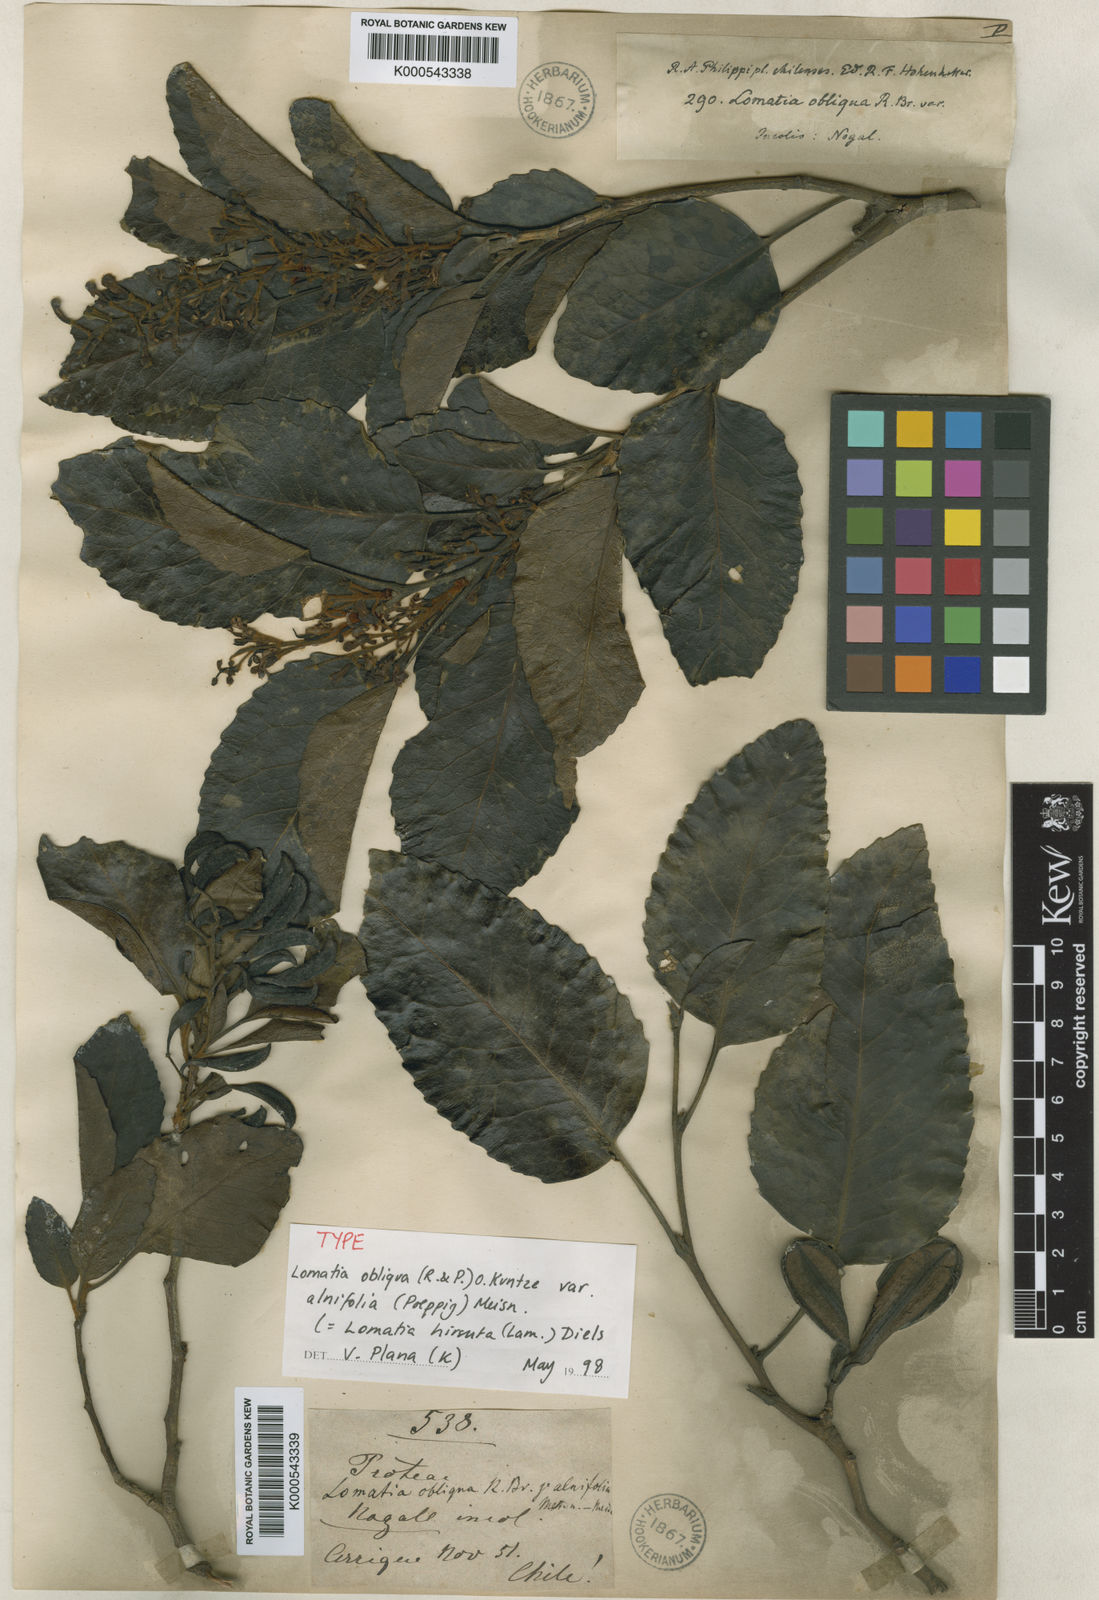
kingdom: Plantae
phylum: Tracheophyta
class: Magnoliopsida
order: Proteales
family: Proteaceae
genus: Lomatia
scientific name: Lomatia hirsuta
